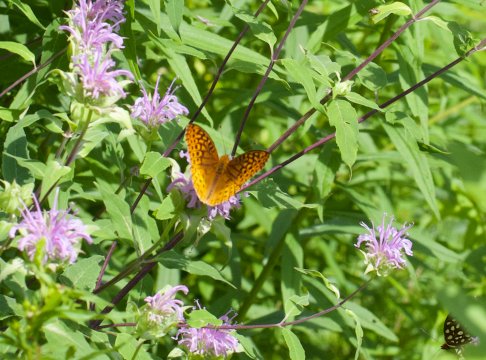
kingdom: Animalia
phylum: Arthropoda
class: Insecta
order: Lepidoptera
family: Nymphalidae
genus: Speyeria
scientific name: Speyeria cybele
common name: Great Spangled Fritillary
